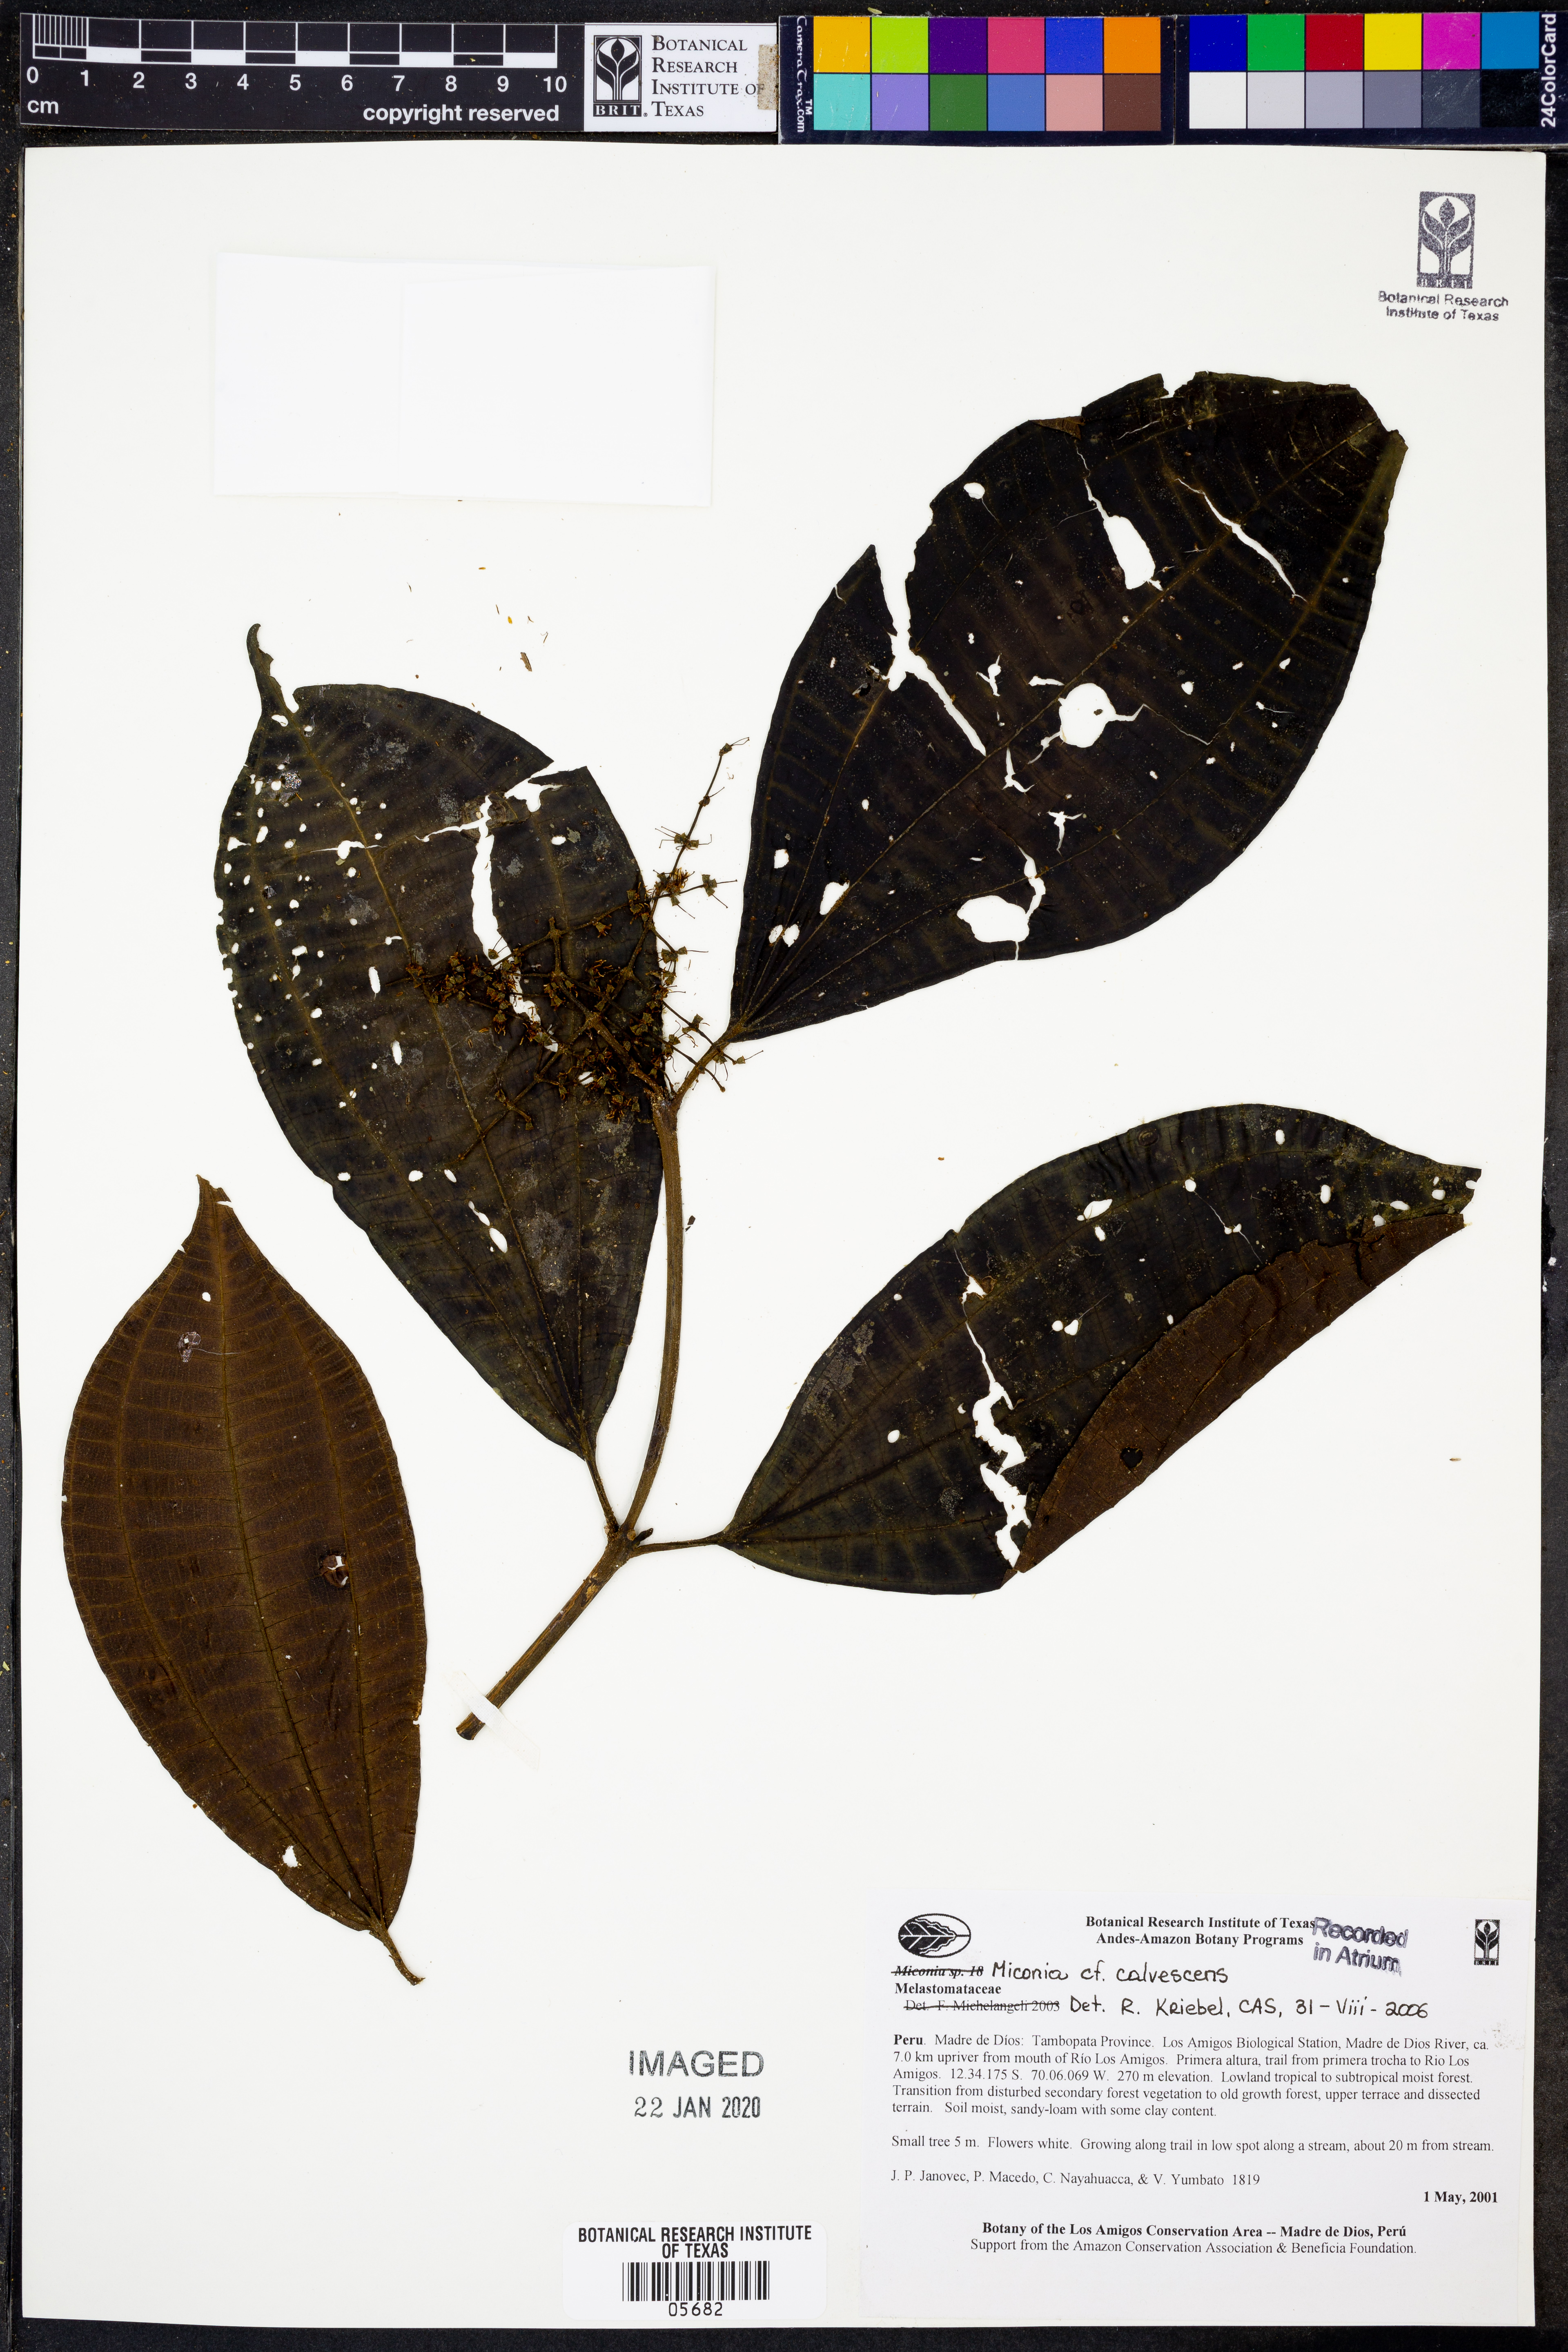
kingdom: Plantae
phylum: Tracheophyta
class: Magnoliopsida
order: Myrtales
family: Melastomataceae
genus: Miconia
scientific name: Miconia calvescens
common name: Purple plague
